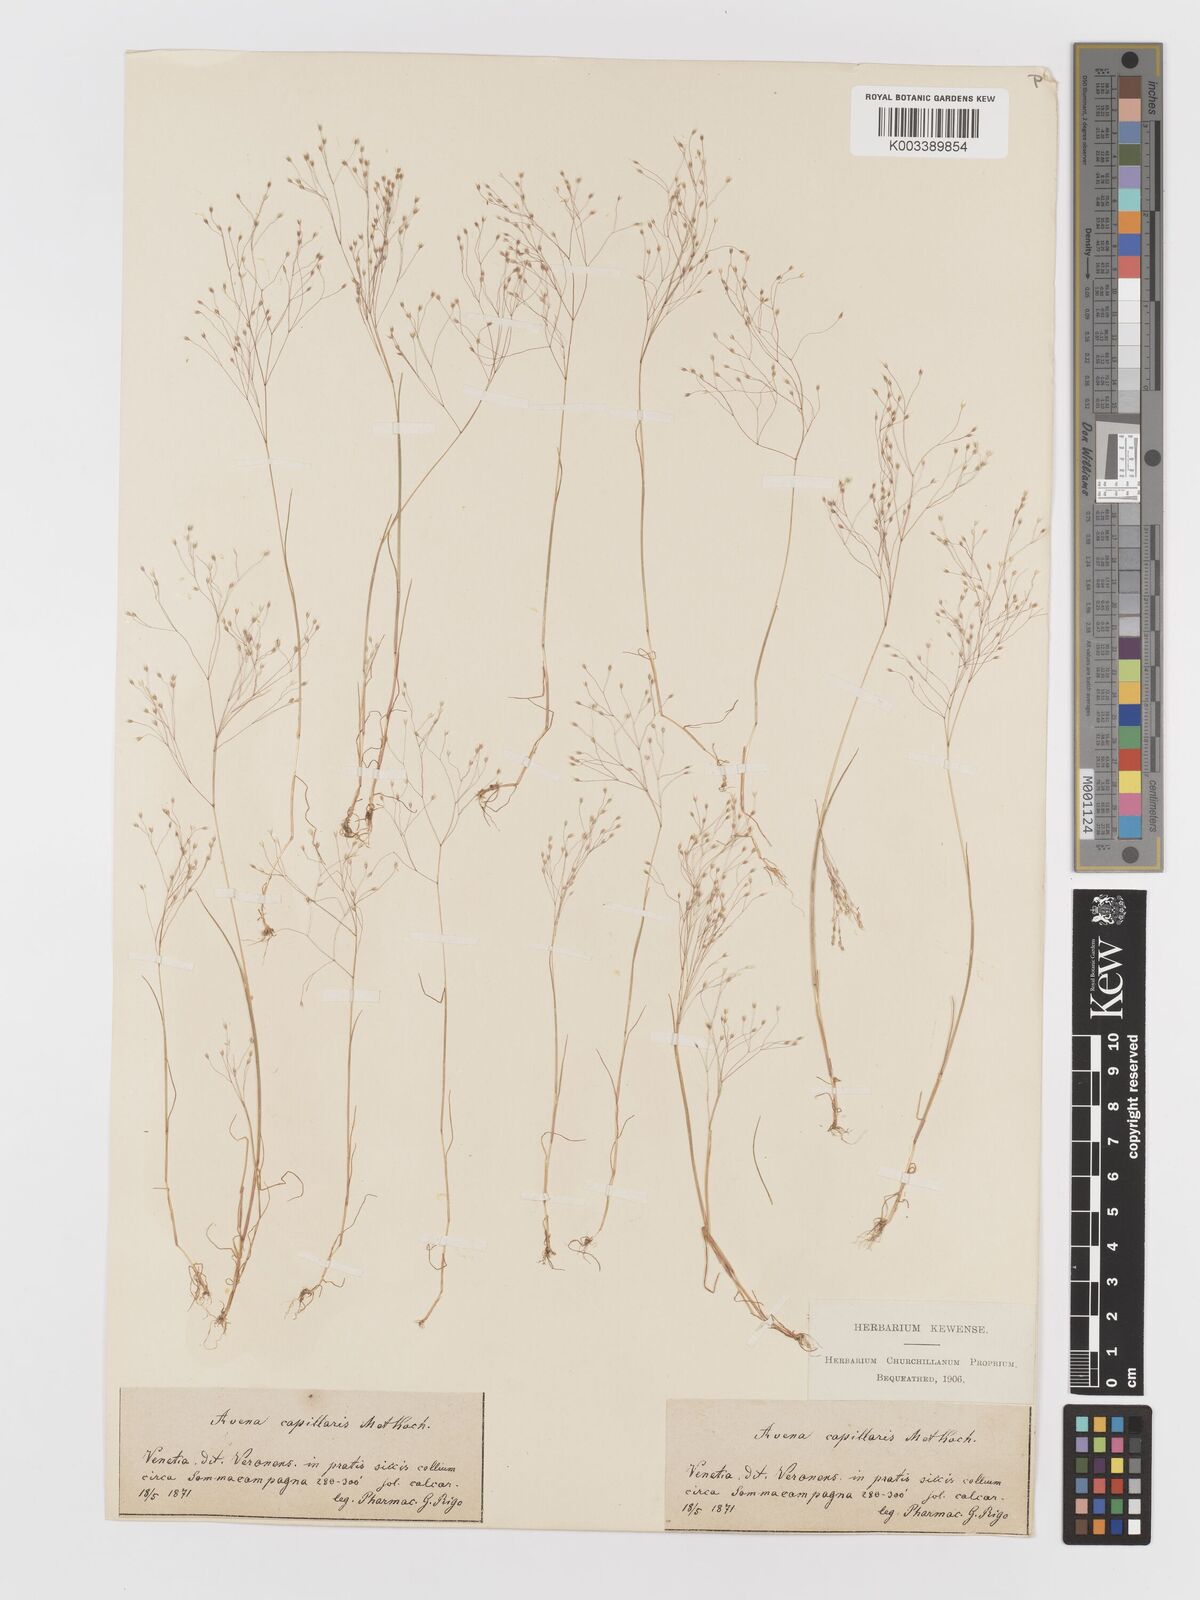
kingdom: Plantae
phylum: Tracheophyta
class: Liliopsida
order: Poales
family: Poaceae
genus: Aira
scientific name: Aira elegans
